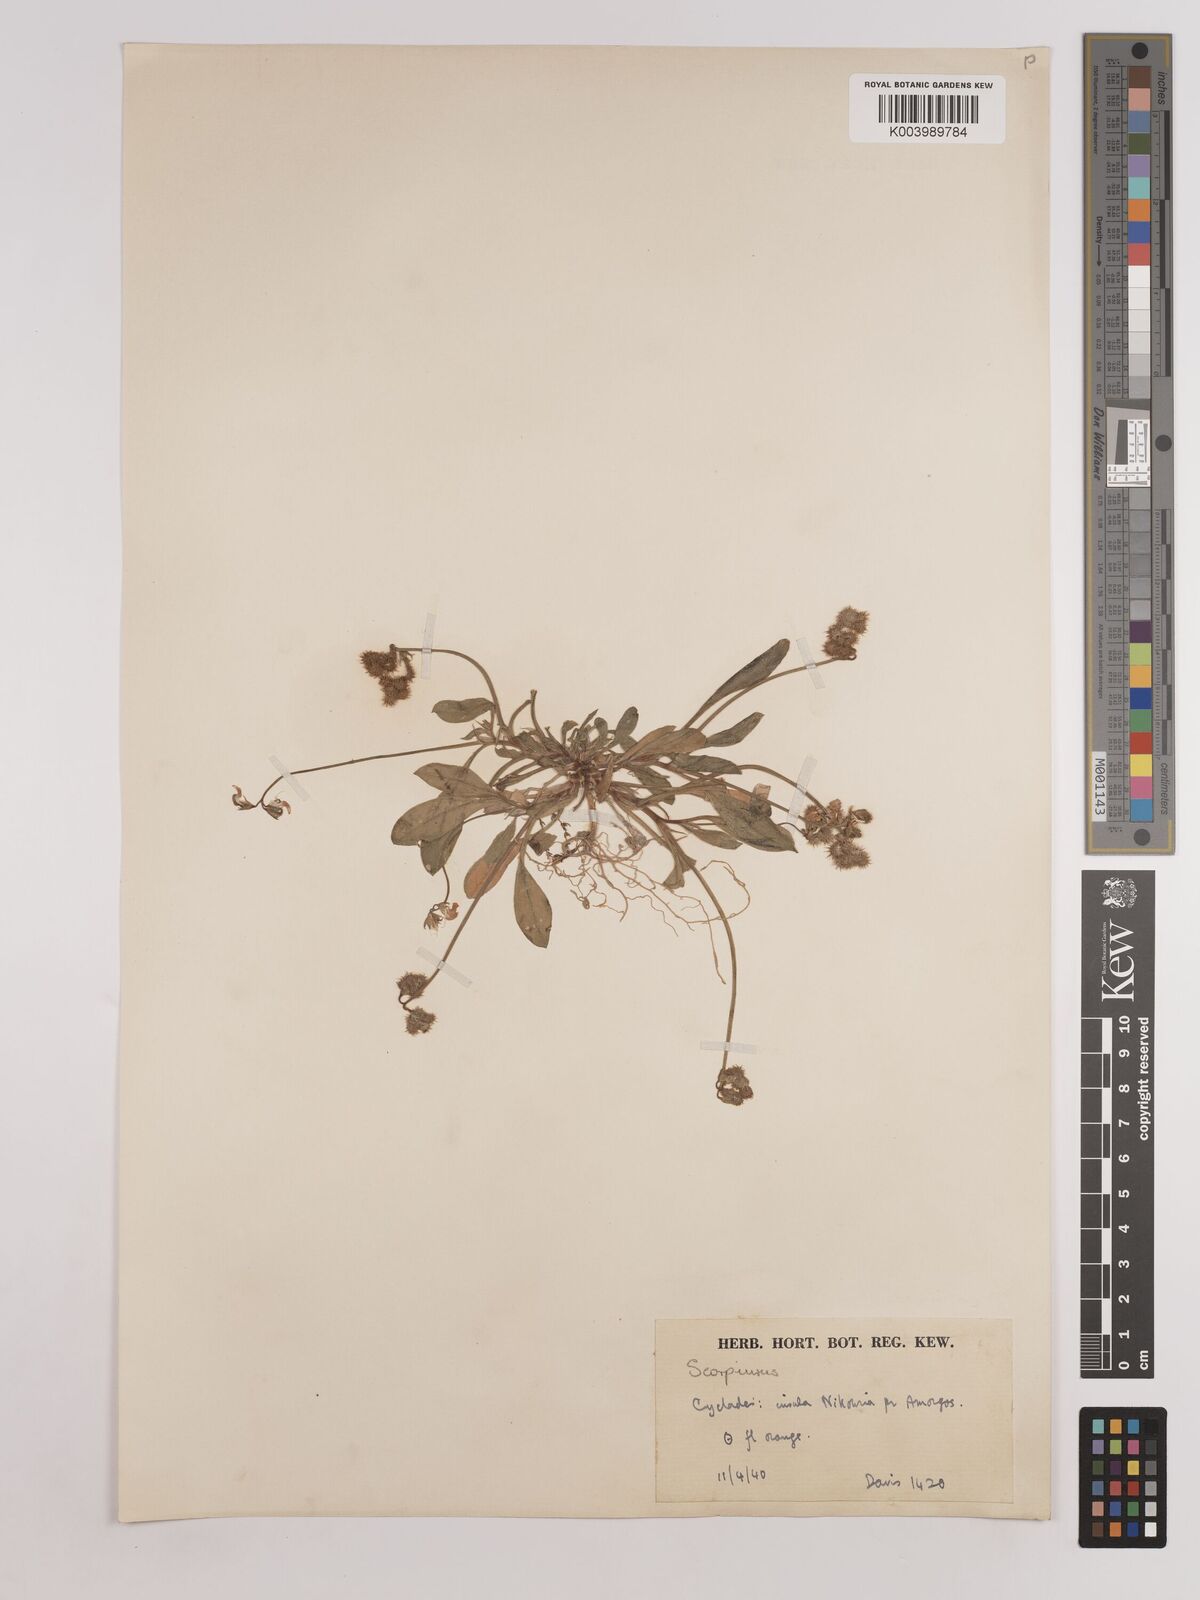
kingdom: Plantae
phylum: Tracheophyta
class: Magnoliopsida
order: Fabales
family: Fabaceae
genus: Scorpiurus
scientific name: Scorpiurus muricatus
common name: Caterpillar-plant
